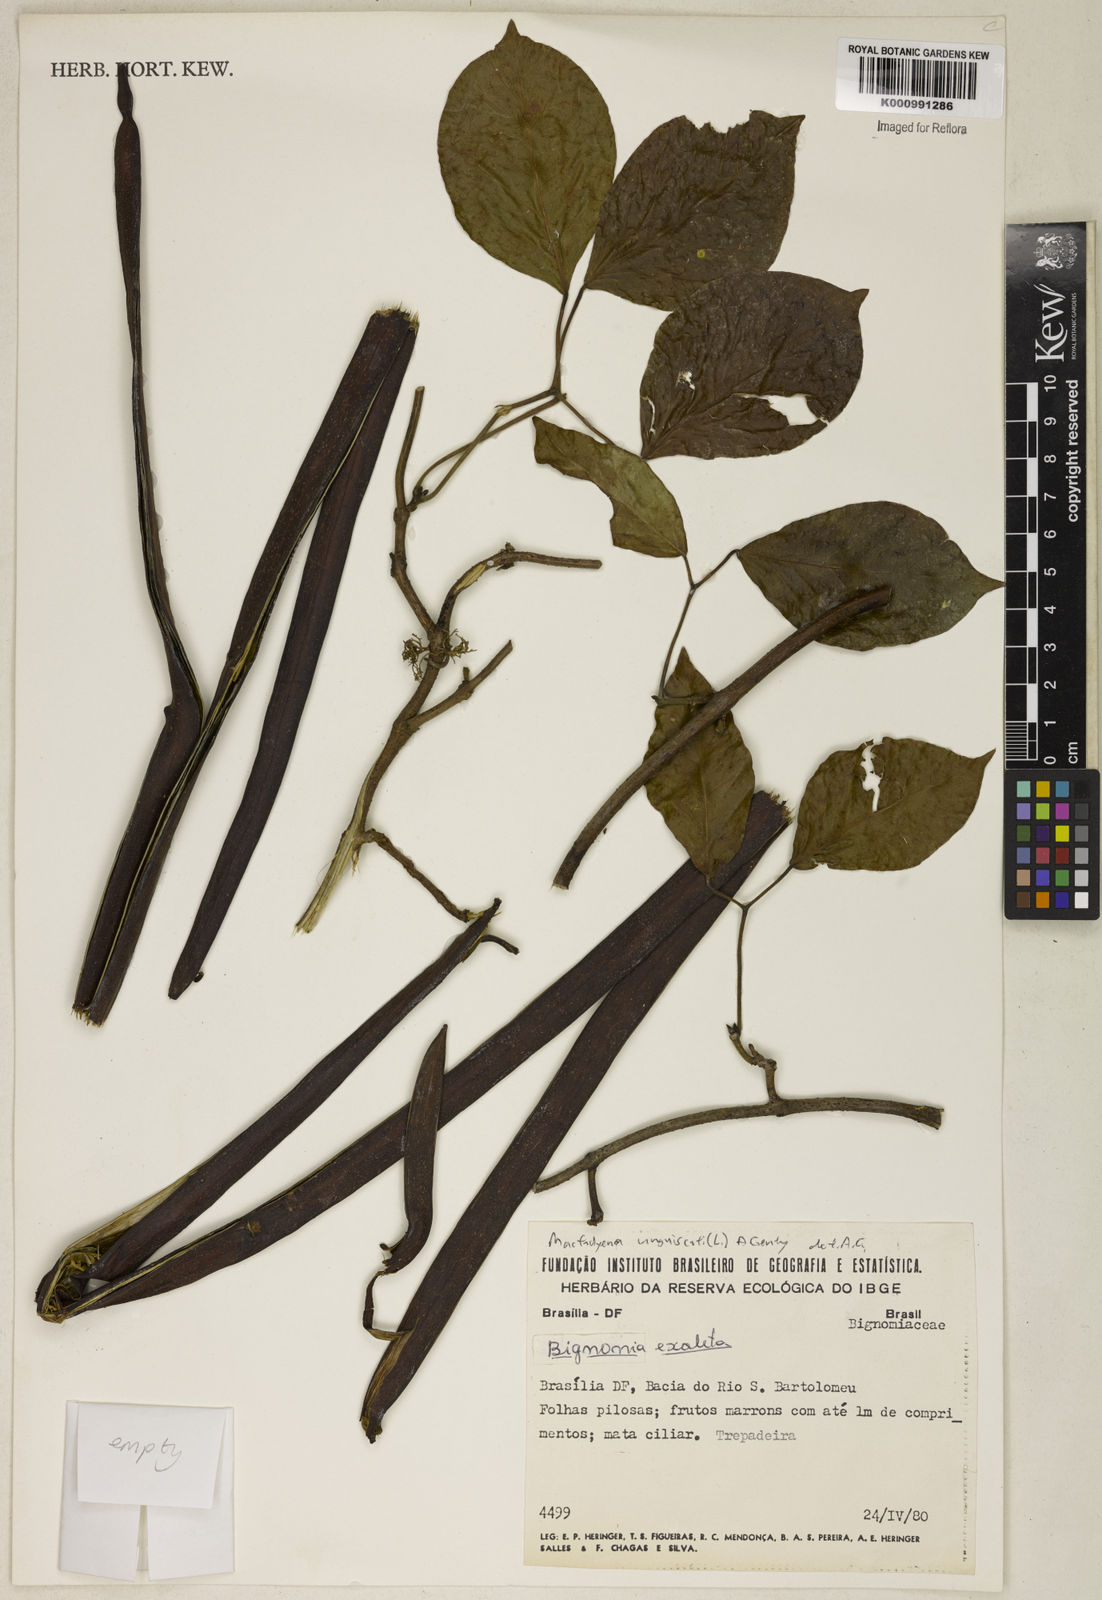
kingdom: Plantae
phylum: Tracheophyta
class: Magnoliopsida
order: Lamiales
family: Bignoniaceae
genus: Dolichandra
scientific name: Dolichandra unguis-cati
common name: Catclaw vine
